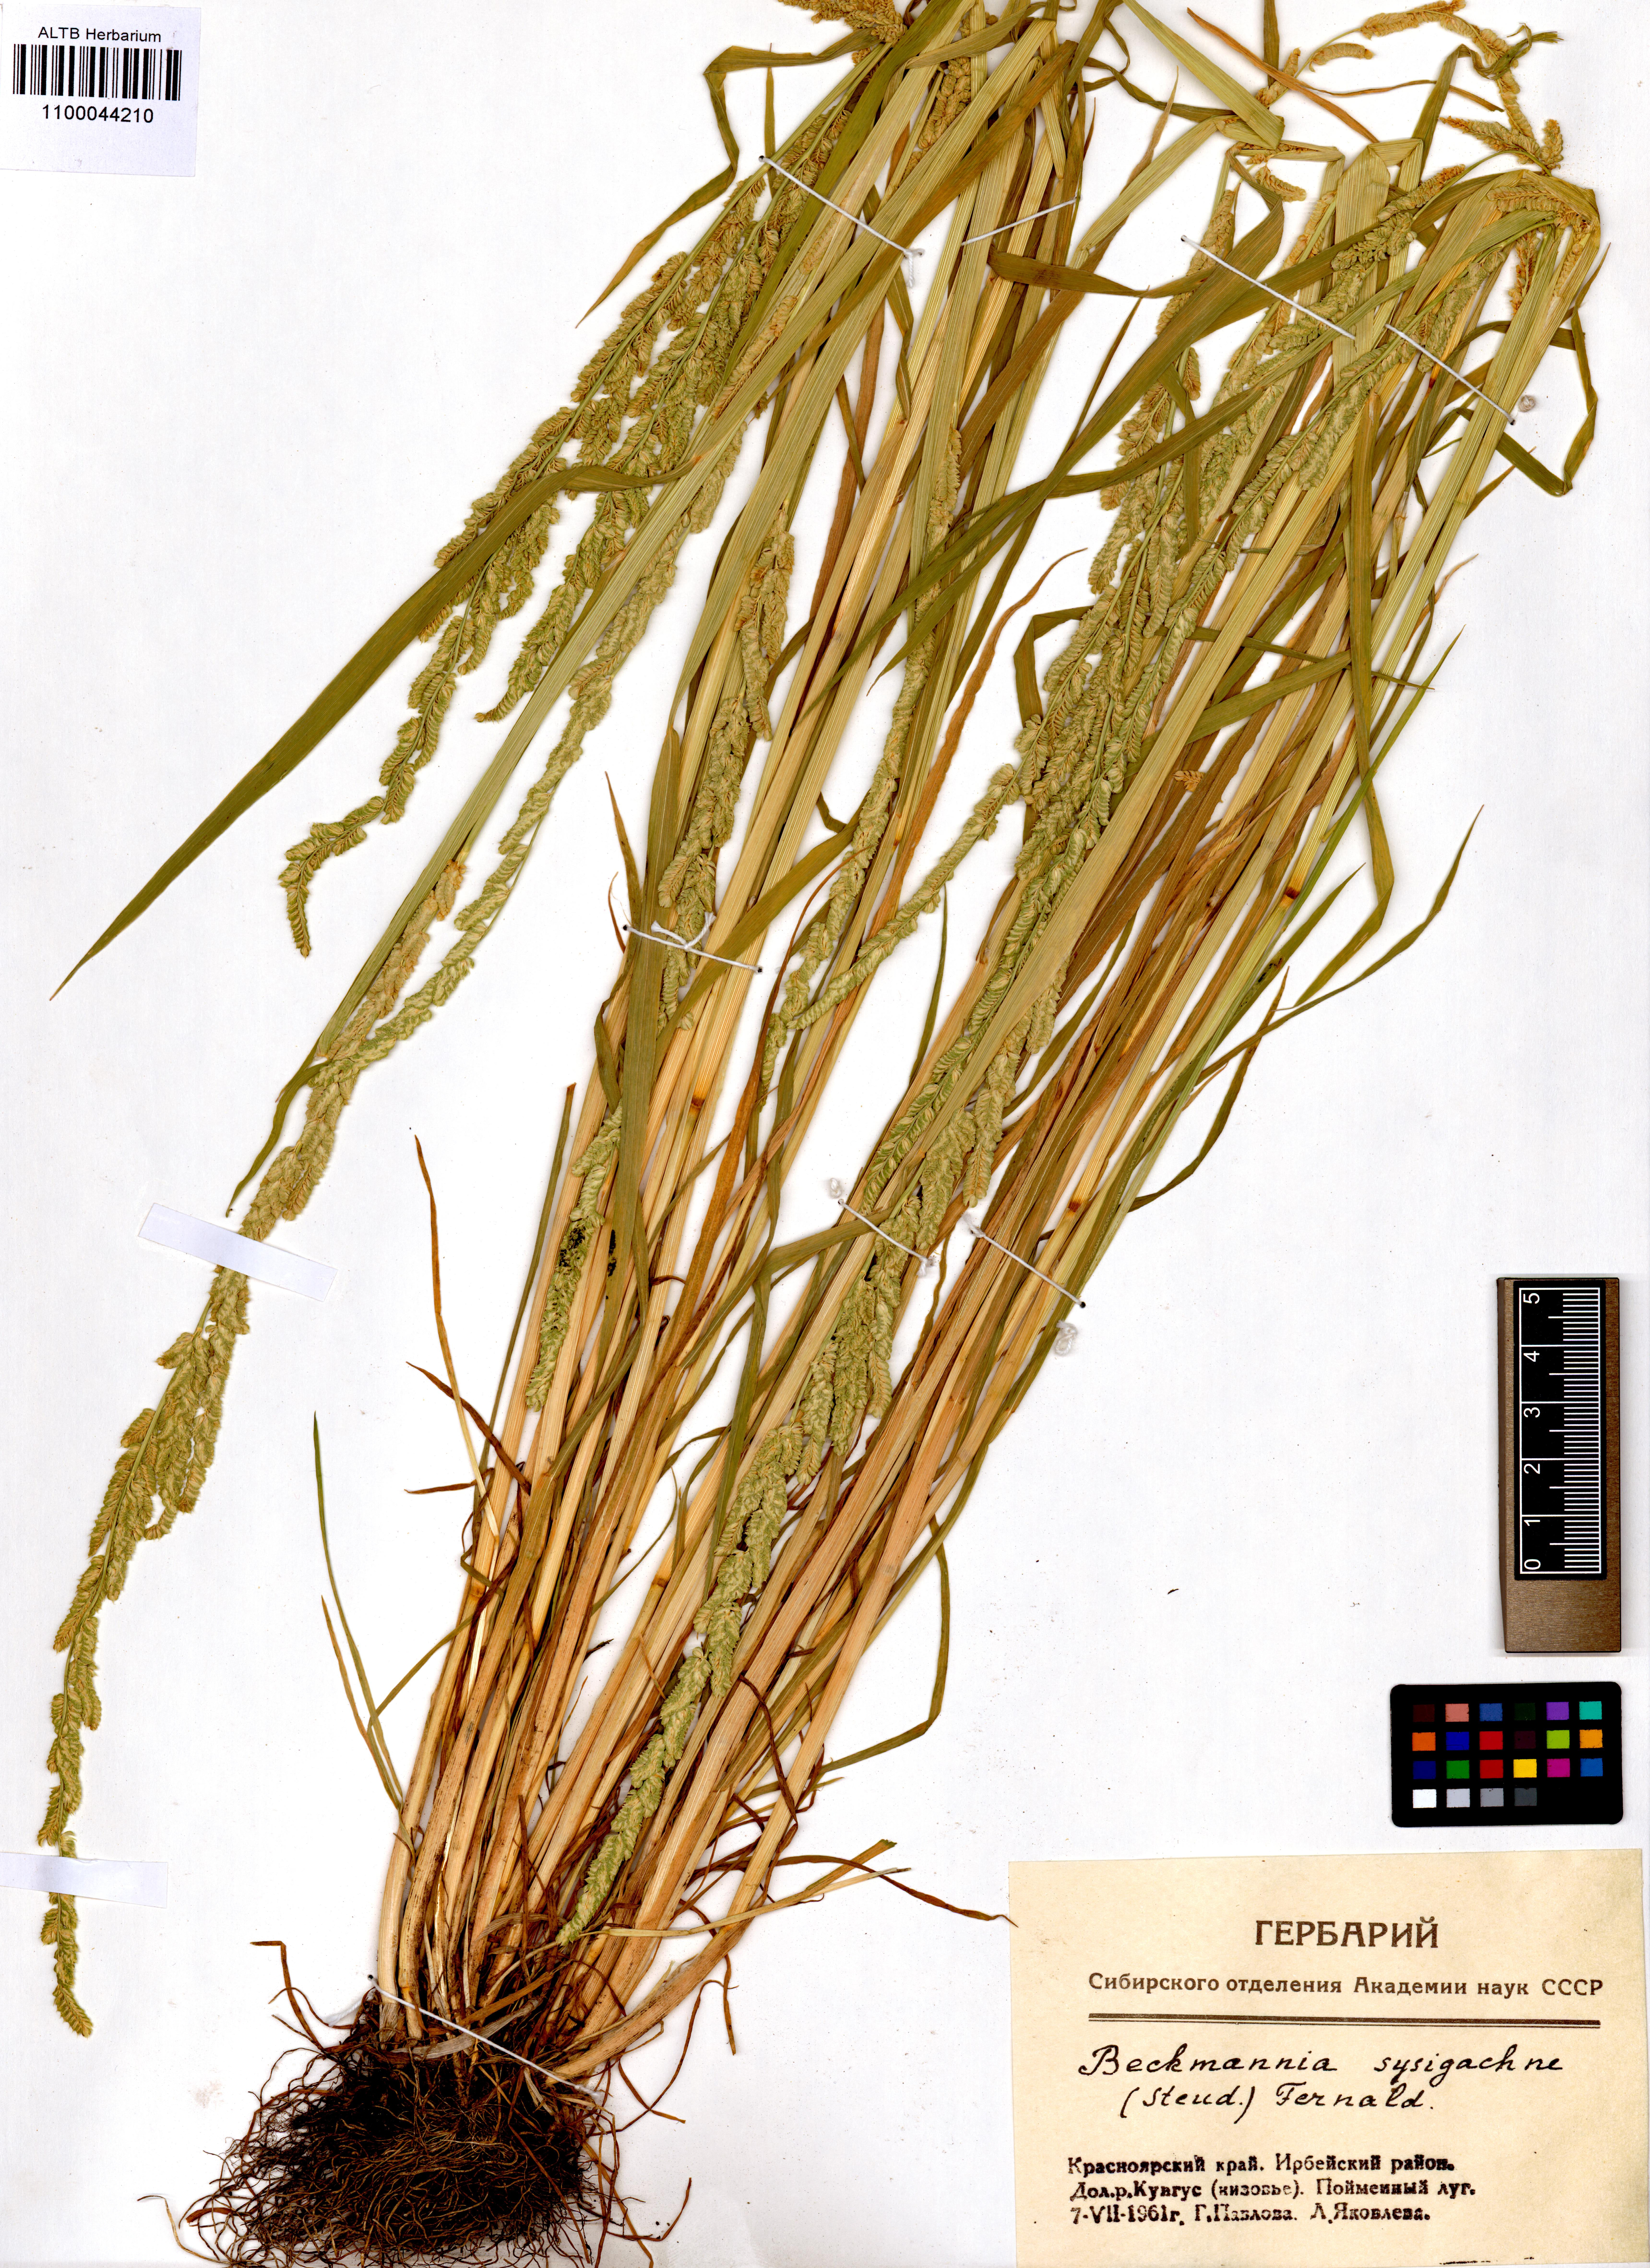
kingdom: Plantae
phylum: Tracheophyta
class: Liliopsida
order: Poales
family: Poaceae
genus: Beckmannia
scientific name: Beckmannia syzigachne
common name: American slough-grass
